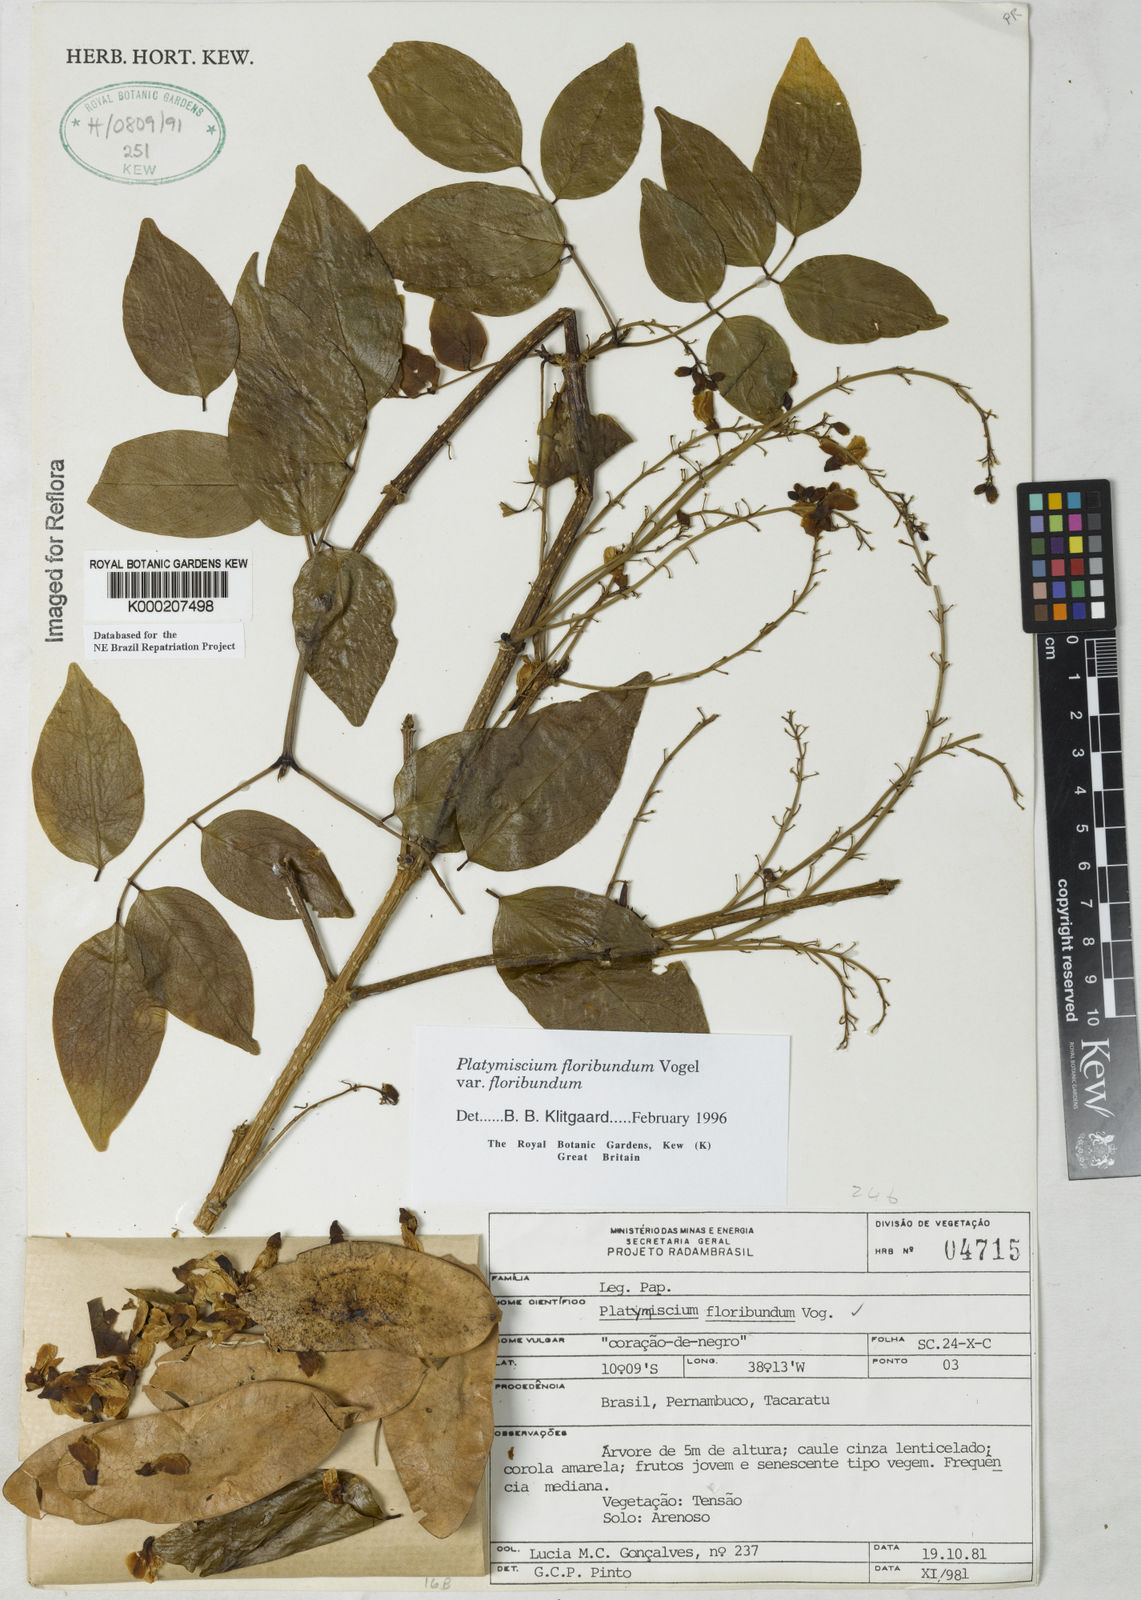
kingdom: Plantae
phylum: Tracheophyta
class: Magnoliopsida
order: Fabales
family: Fabaceae
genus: Platymiscium
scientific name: Platymiscium floribundum
